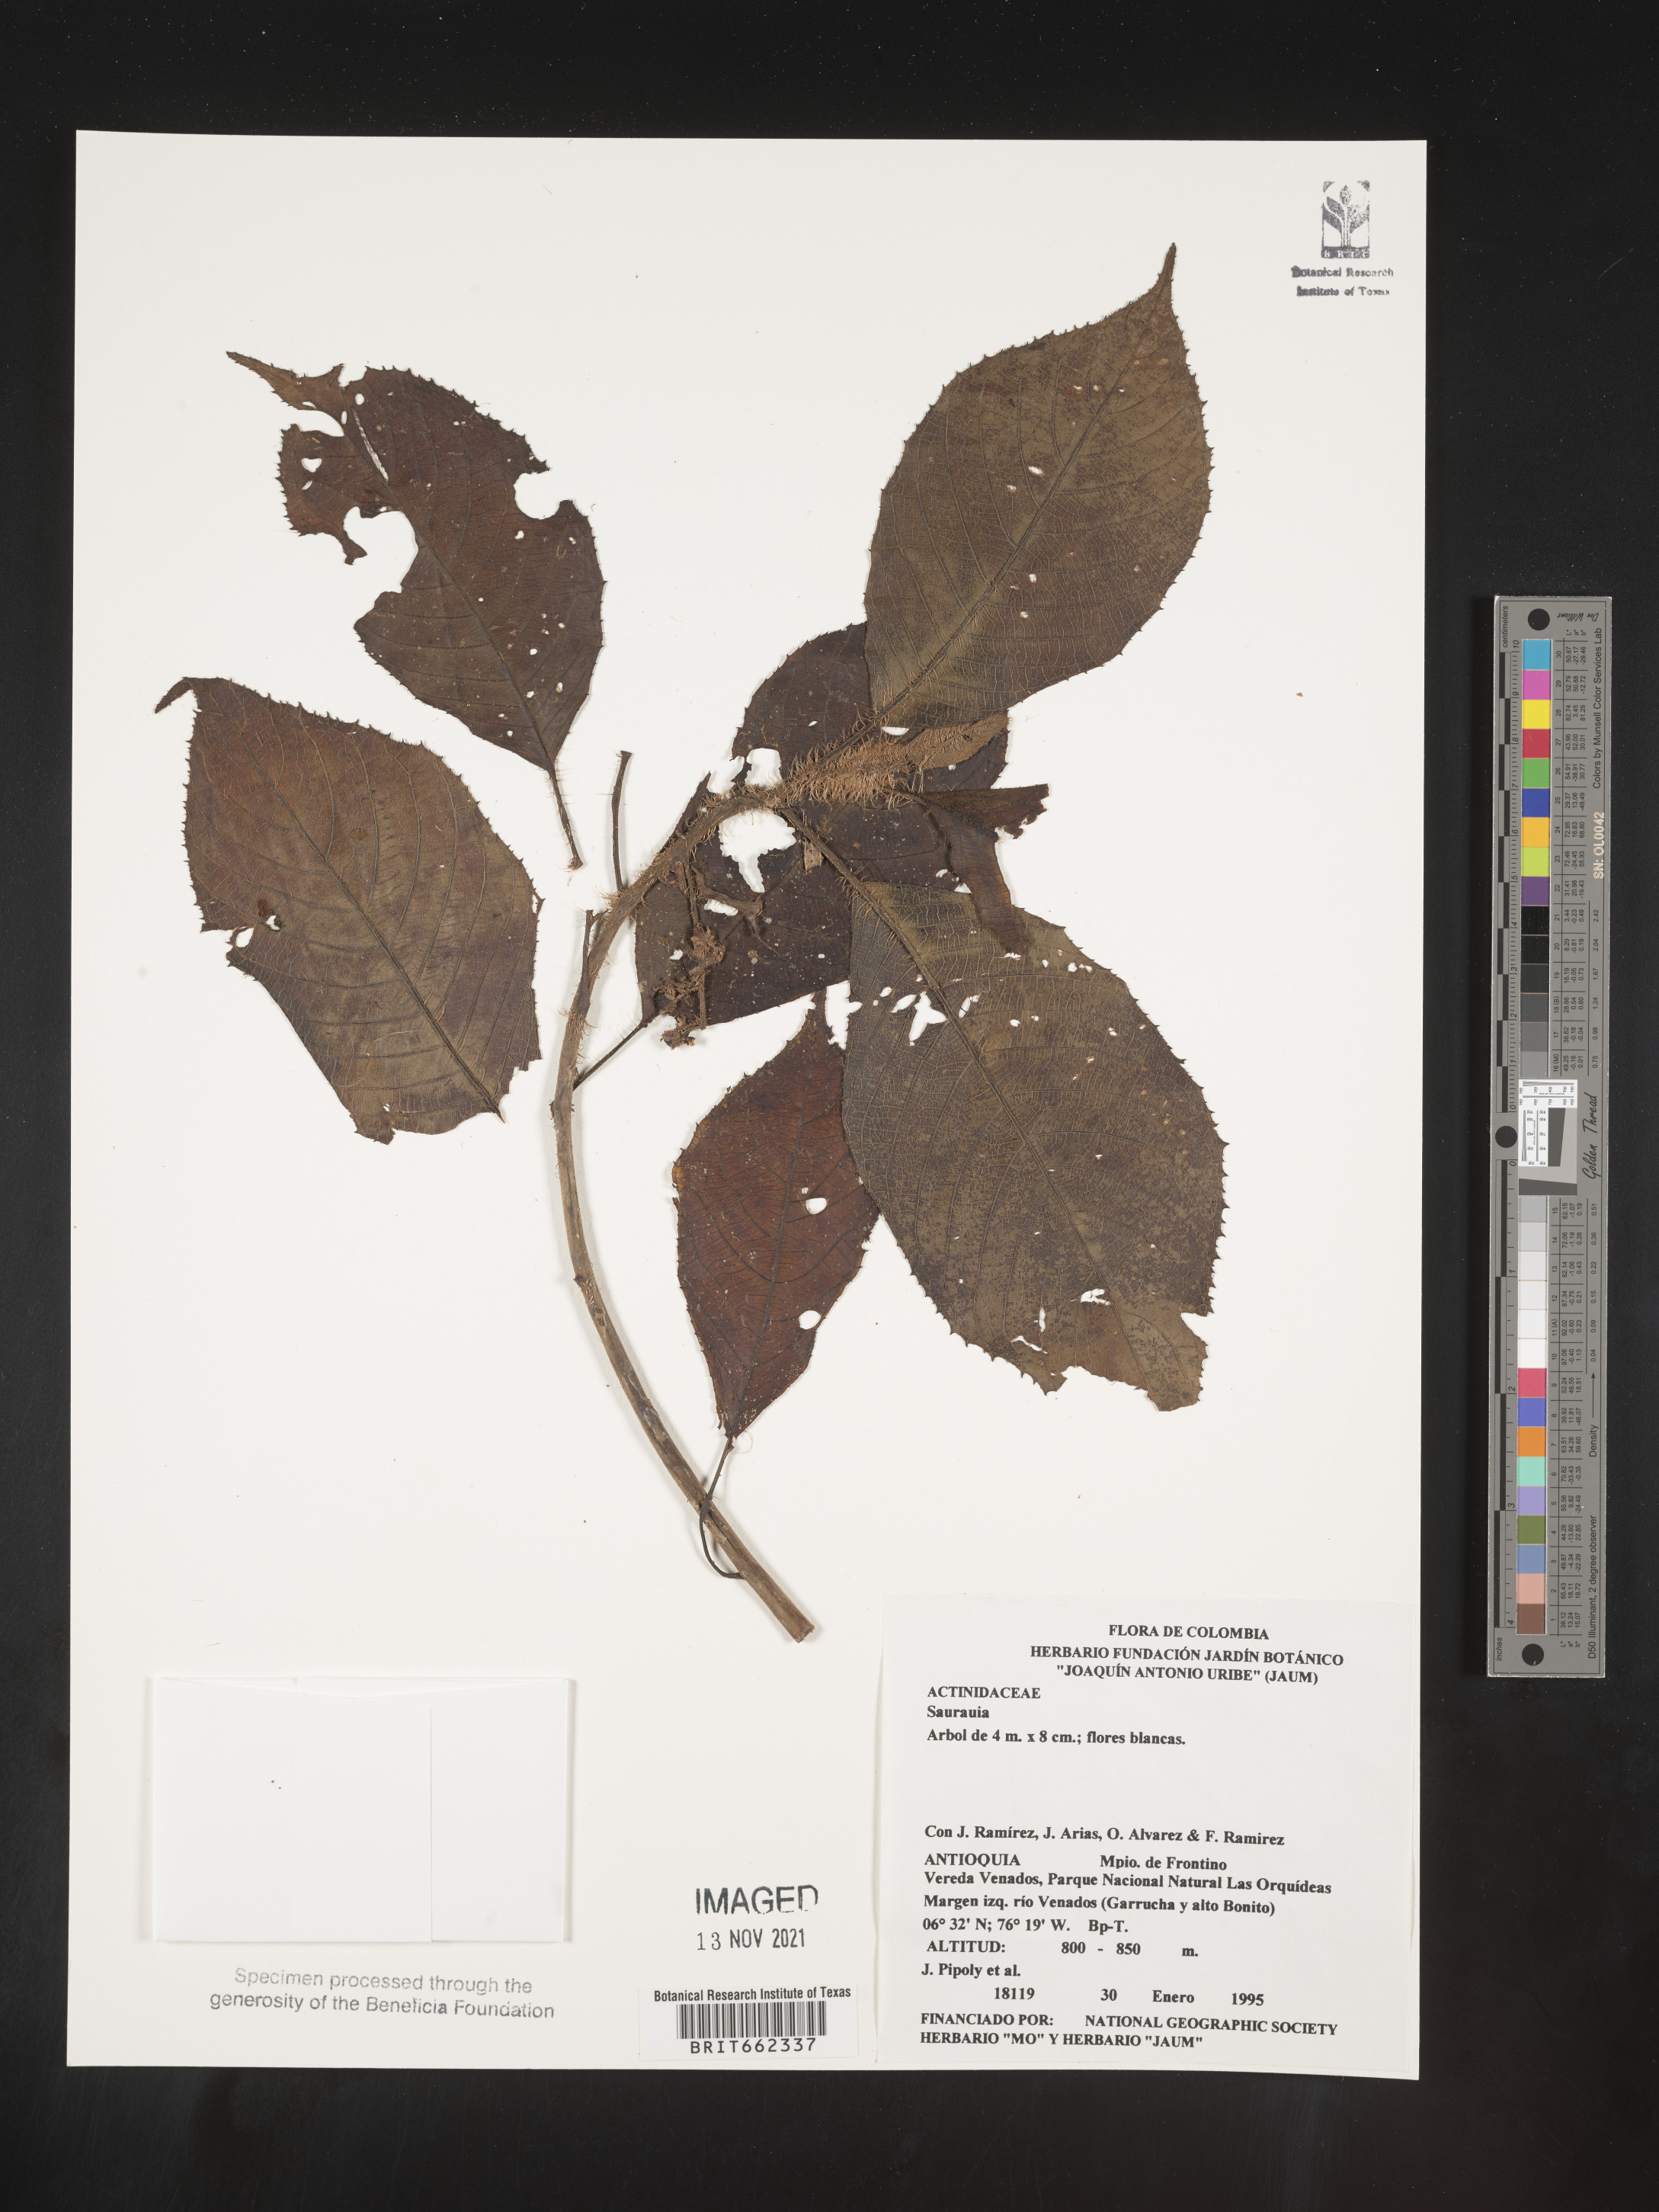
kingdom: Plantae
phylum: Tracheophyta
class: Magnoliopsida
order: Ericales
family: Actinidiaceae
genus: Saurauia
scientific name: Saurauia
